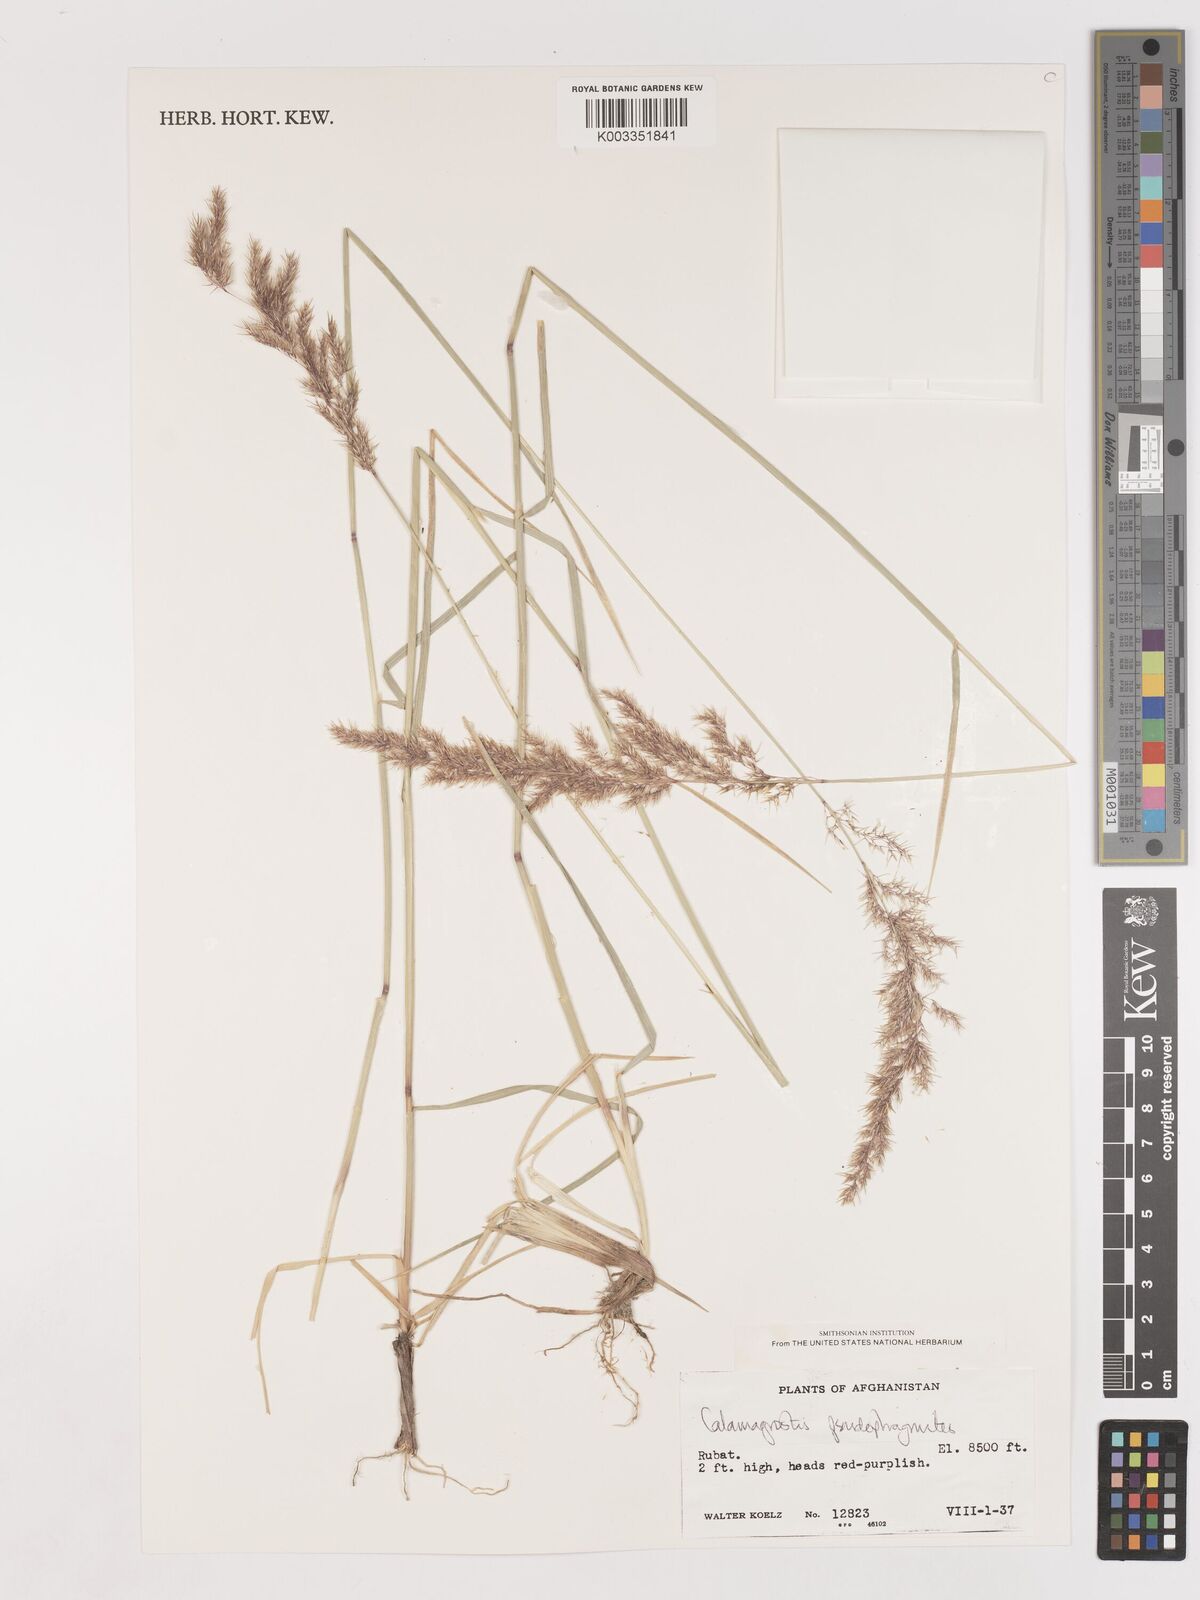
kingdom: Plantae
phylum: Tracheophyta
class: Liliopsida
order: Poales
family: Poaceae
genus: Calamagrostis
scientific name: Calamagrostis purpurea
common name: Scandinavian small-reed
